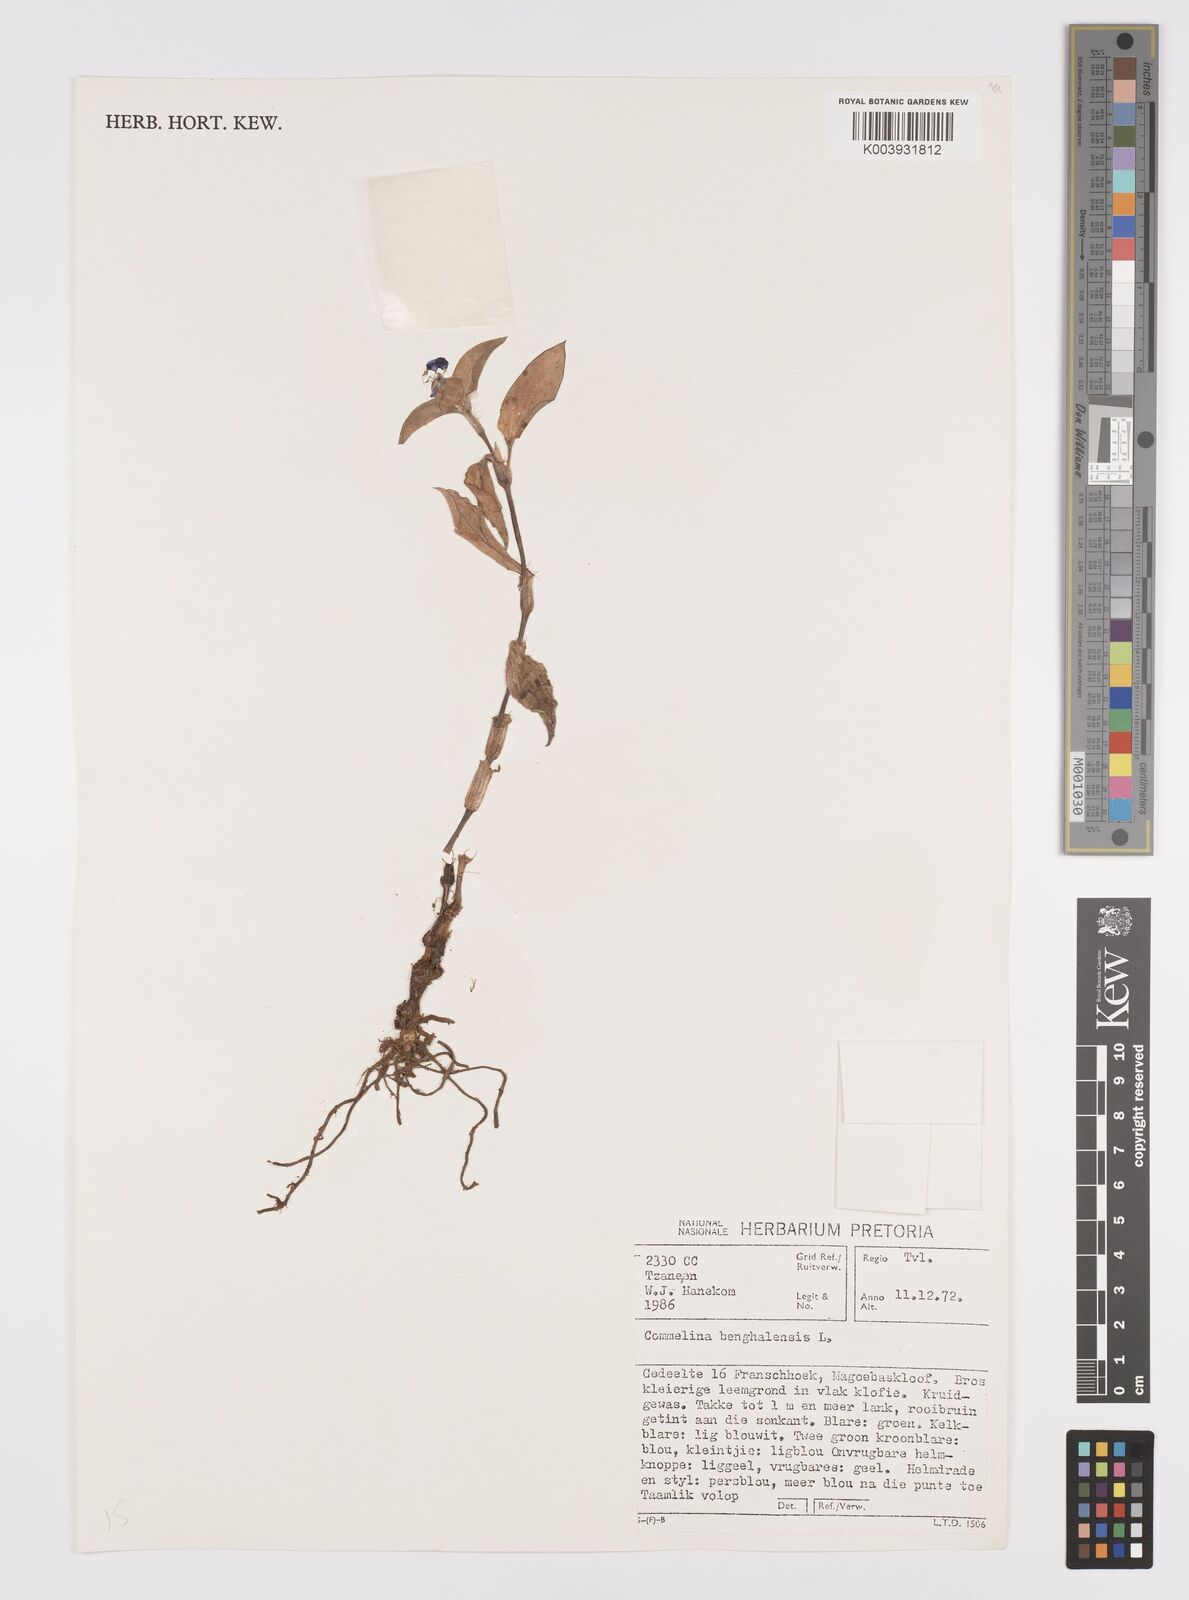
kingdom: Plantae
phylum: Tracheophyta
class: Liliopsida
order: Commelinales
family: Commelinaceae
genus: Commelina
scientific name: Commelina benghalensis
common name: Jio
